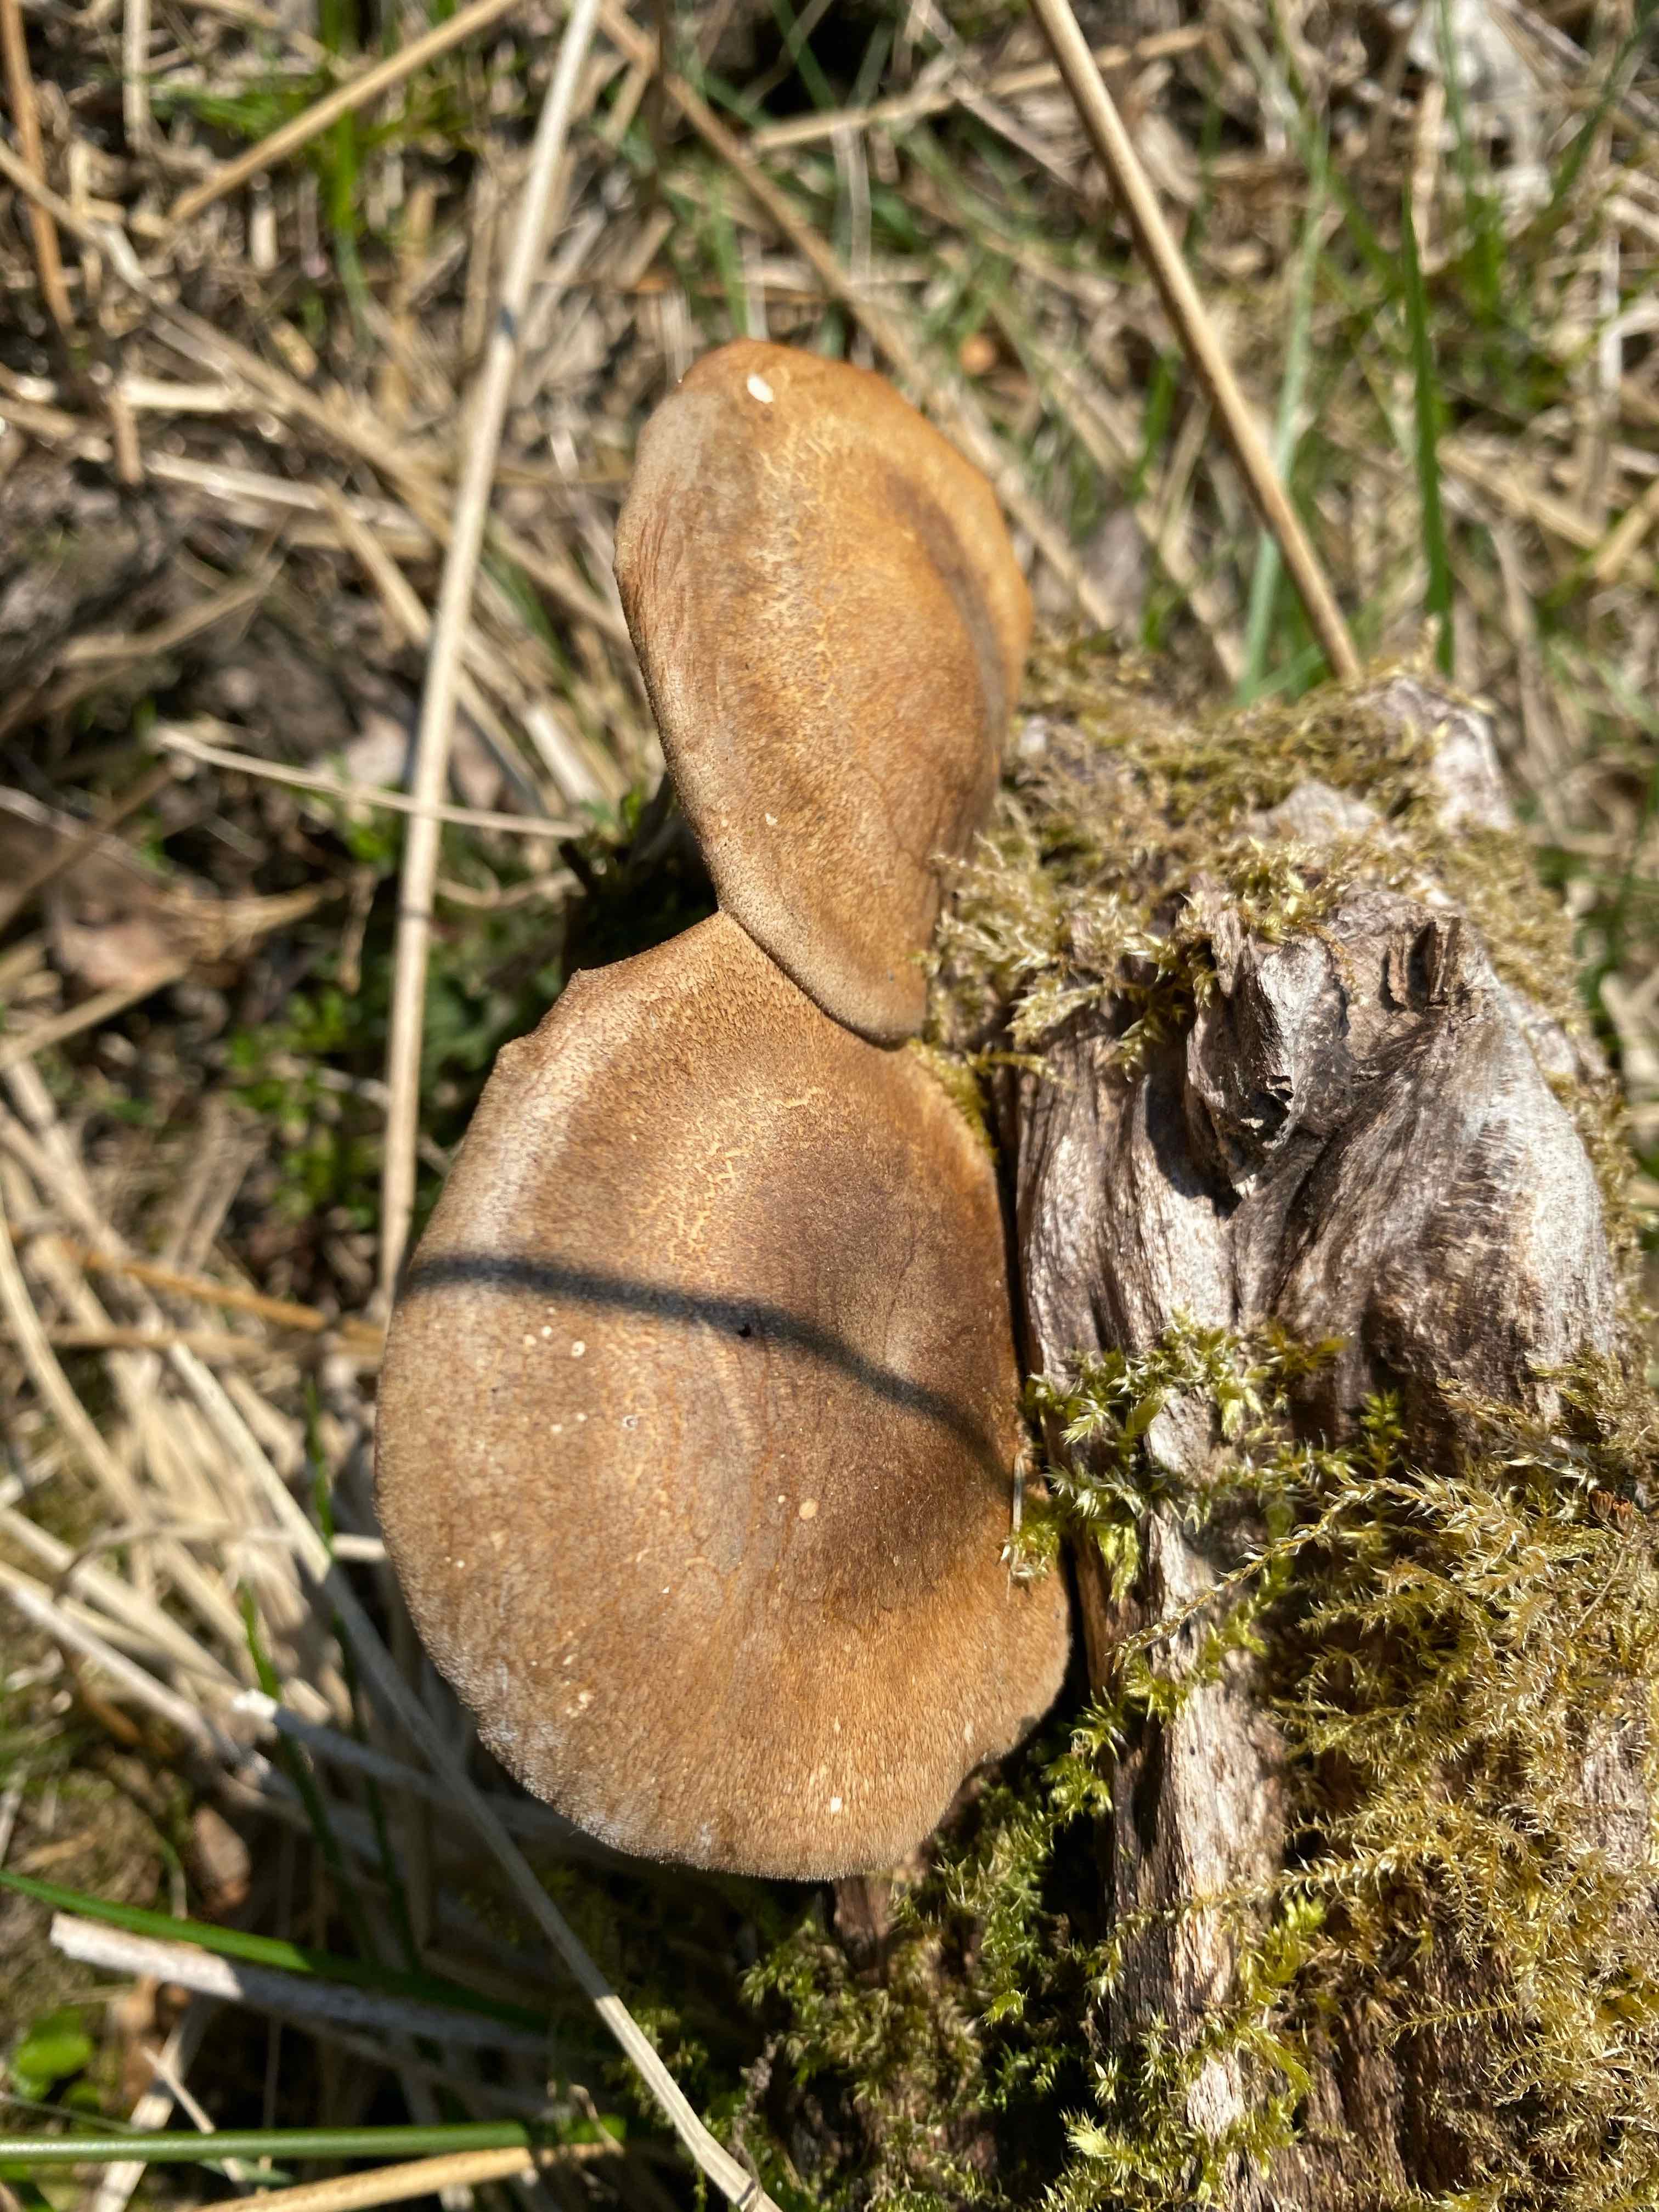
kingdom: Fungi
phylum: Basidiomycota
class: Agaricomycetes
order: Polyporales
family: Polyporaceae
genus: Lentinus
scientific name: Lentinus substrictus
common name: forårs-stilkporesvamp
